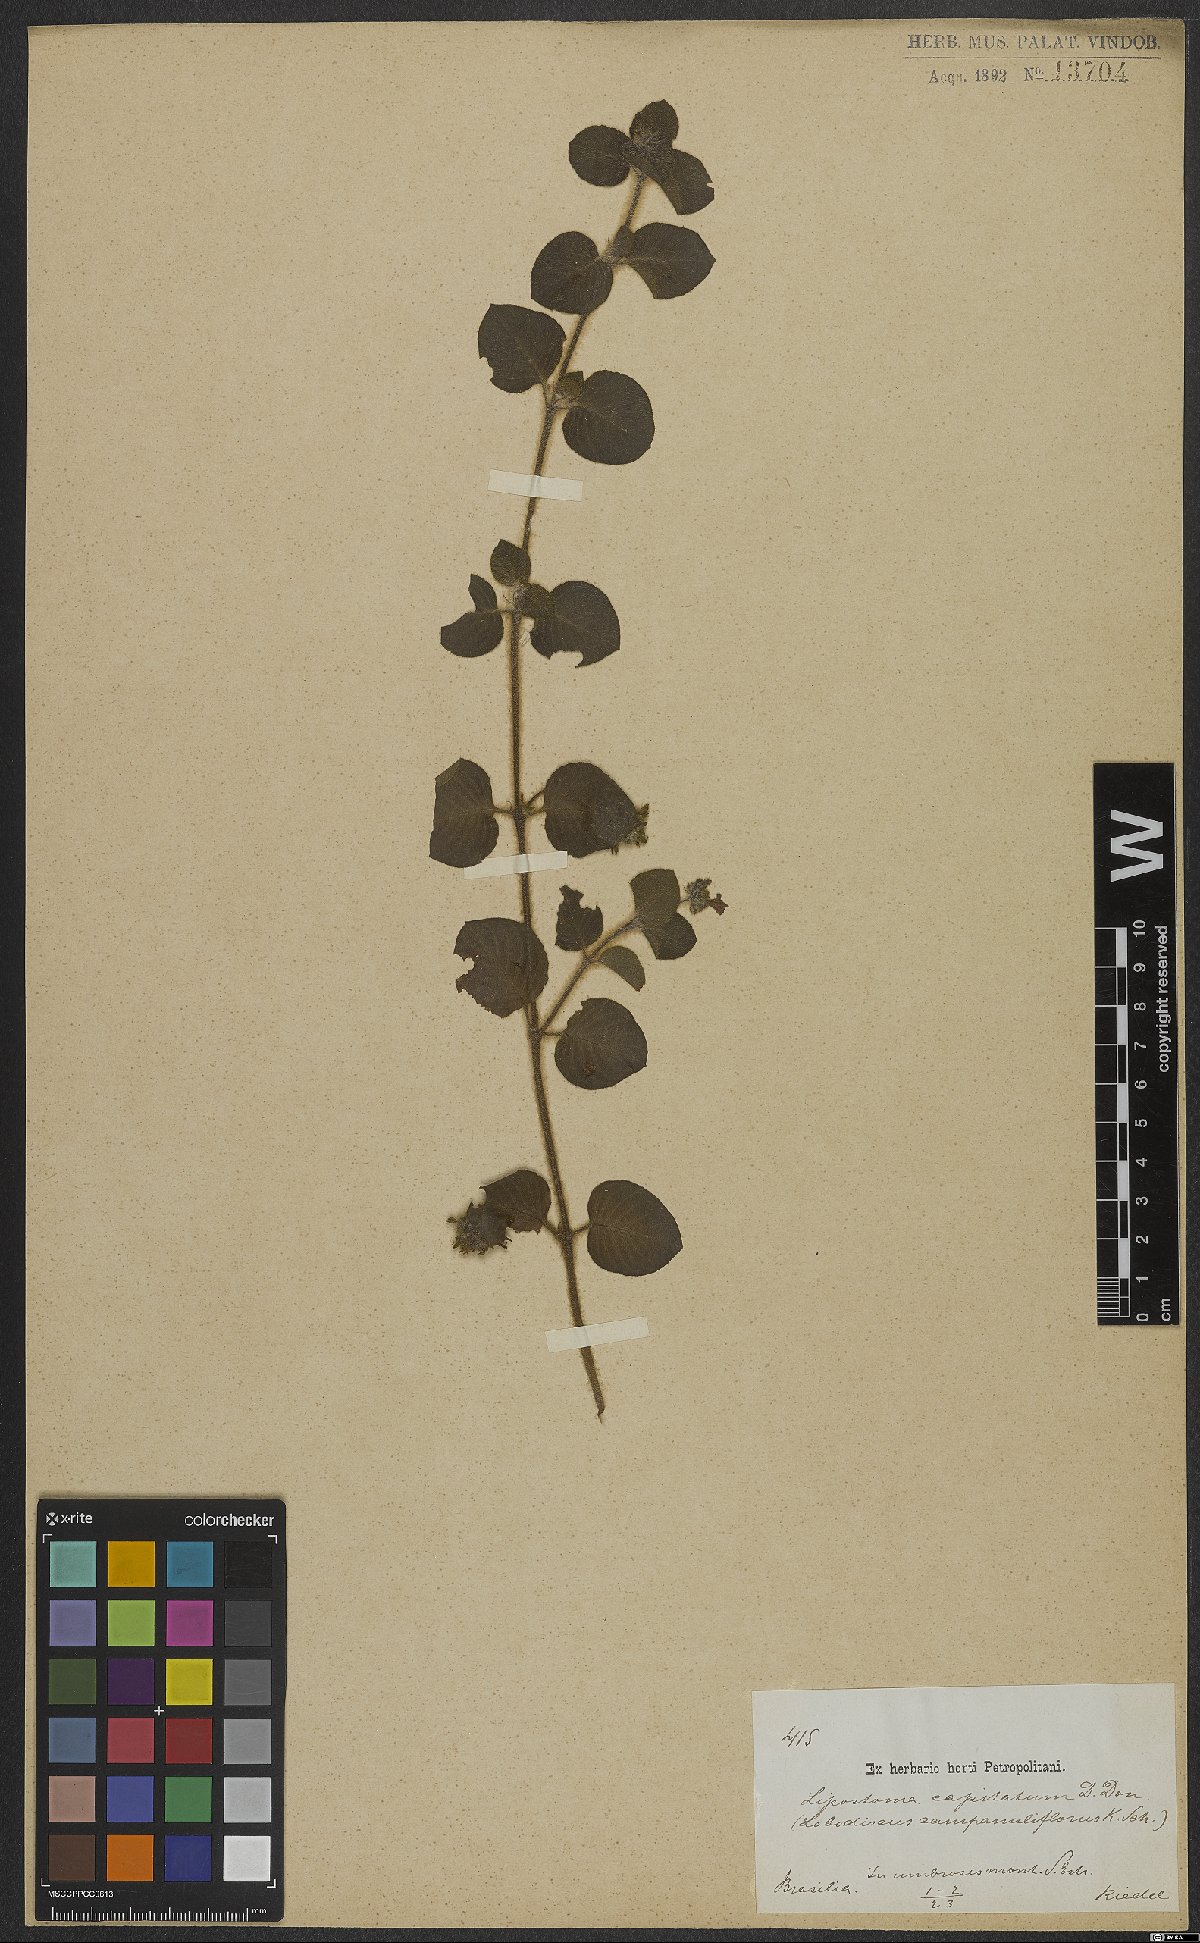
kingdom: Plantae
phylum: Tracheophyta
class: Magnoliopsida
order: Gentianales
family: Rubiaceae
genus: Coccocypselum
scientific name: Coccocypselum capitatum
